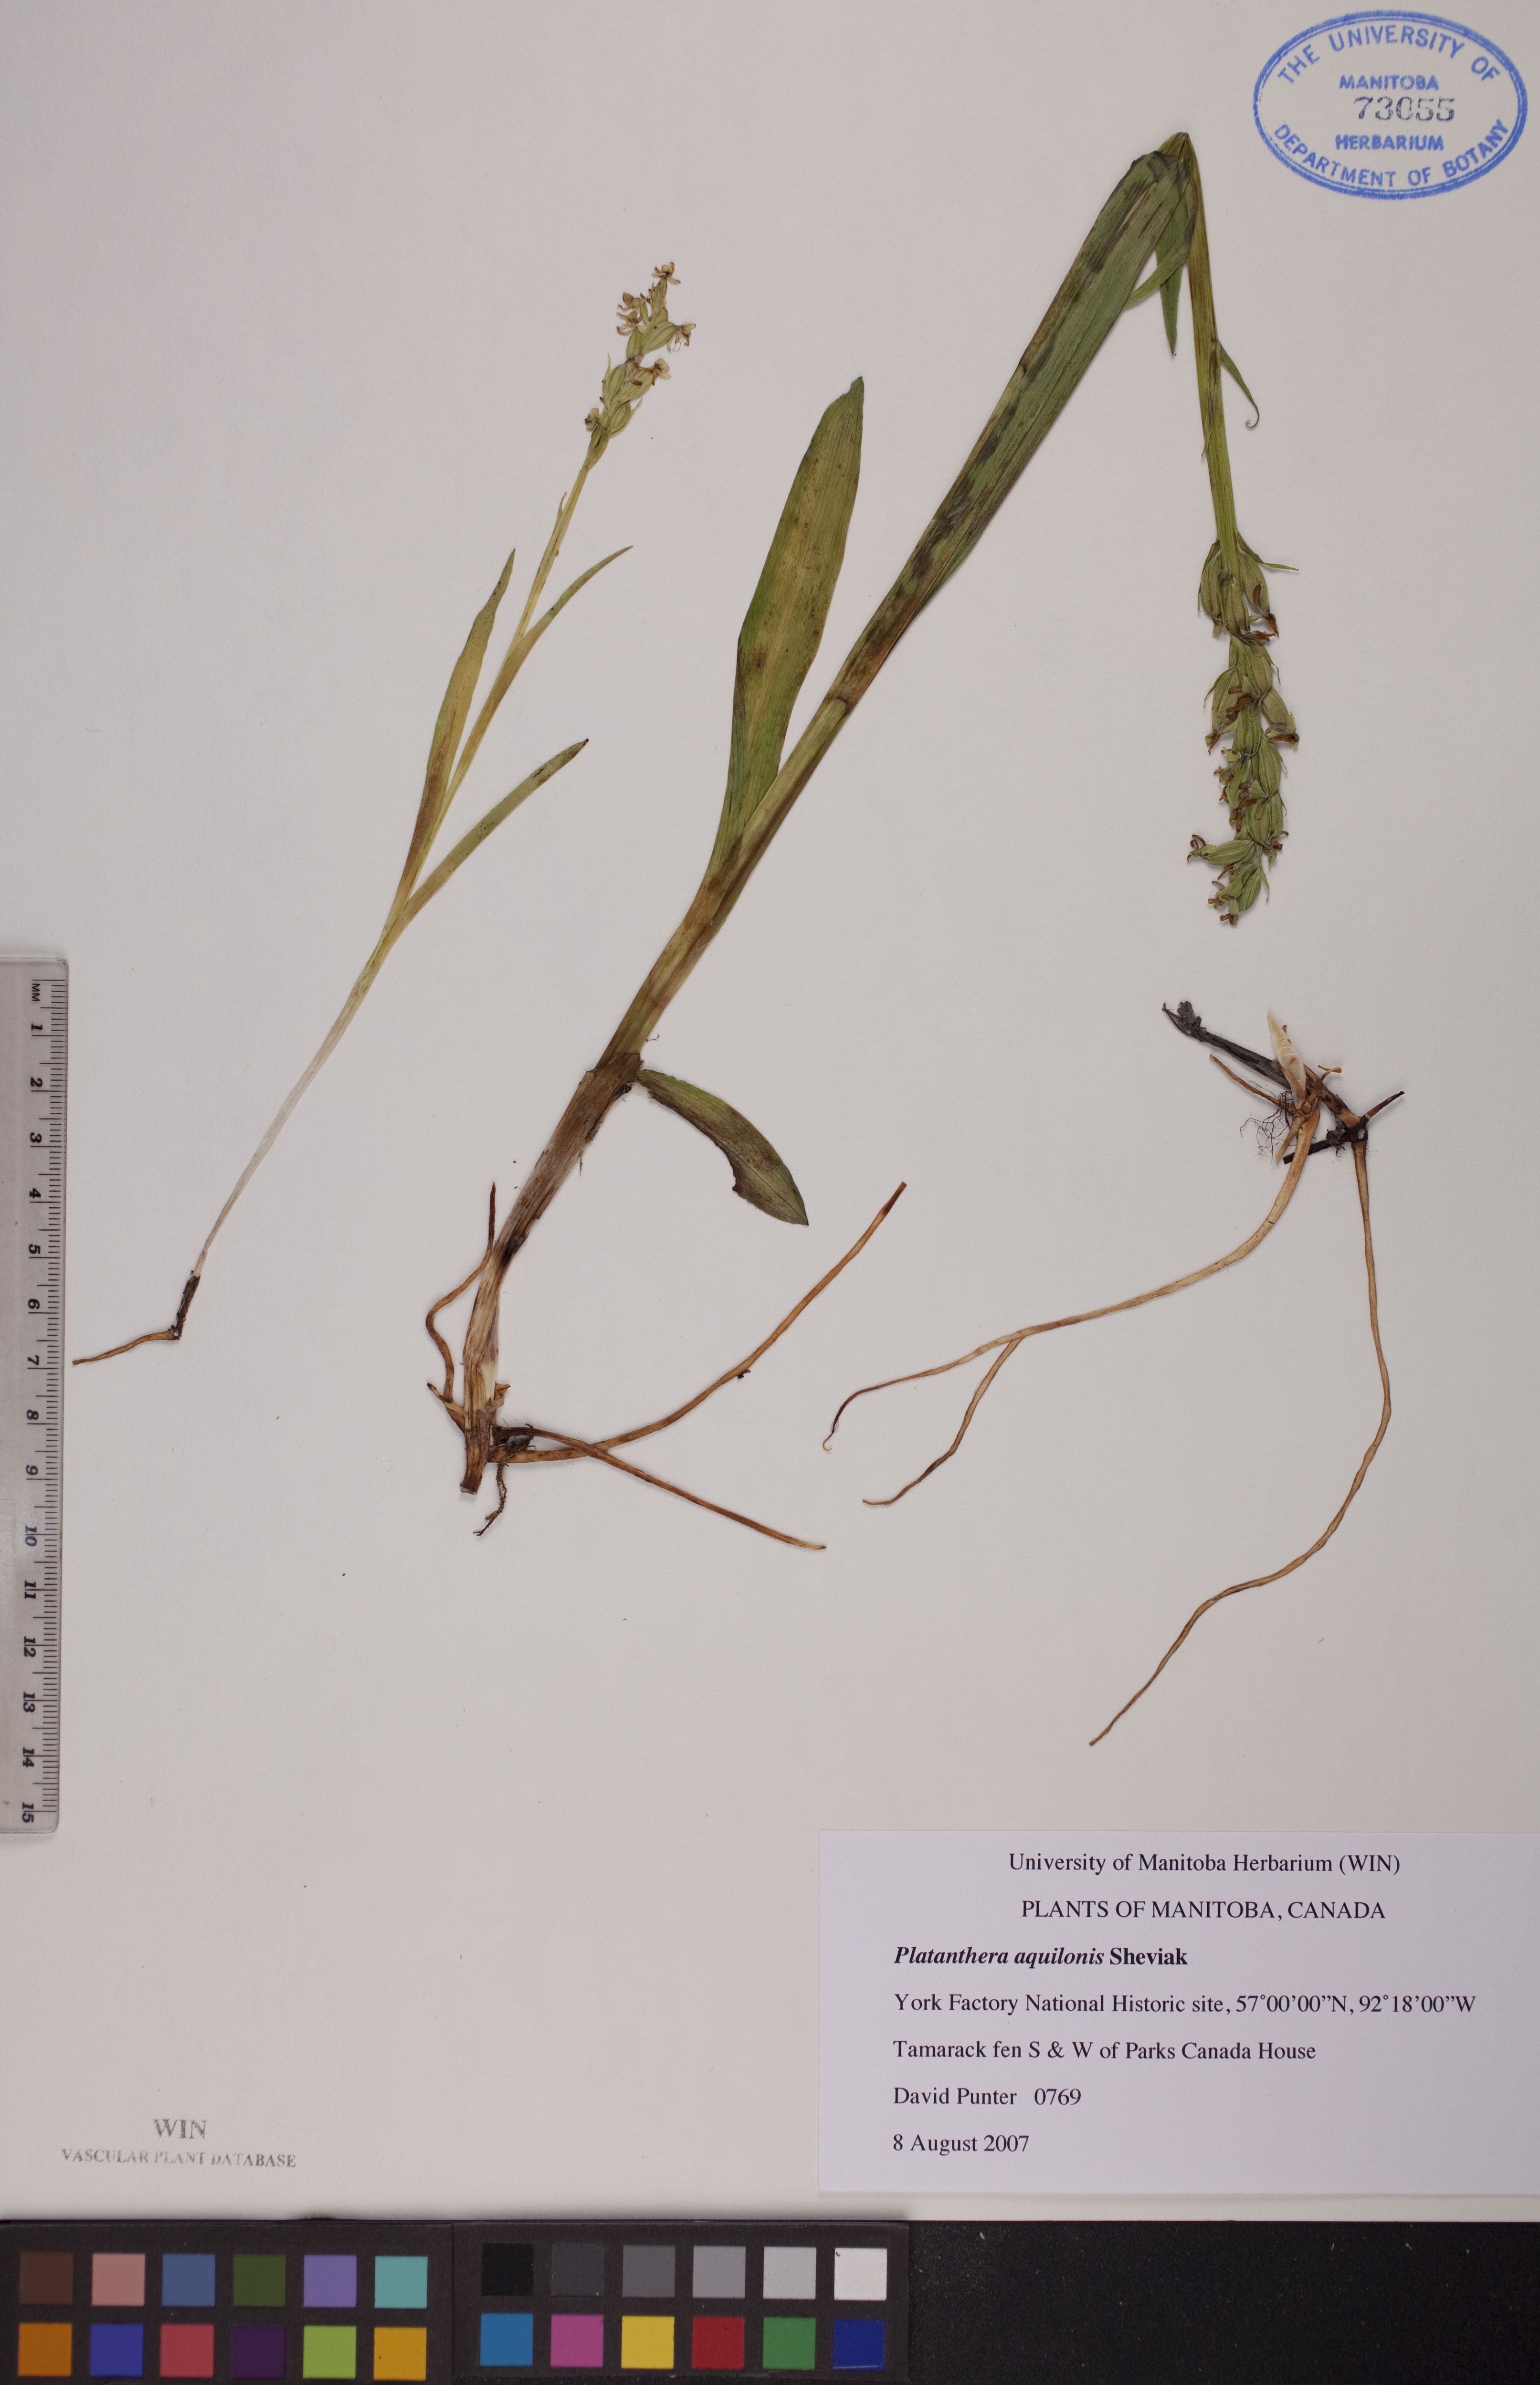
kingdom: Plantae
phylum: Tracheophyta
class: Liliopsida
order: Asparagales
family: Orchidaceae
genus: Platanthera
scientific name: Platanthera aquilonis
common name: Northern green orchid
